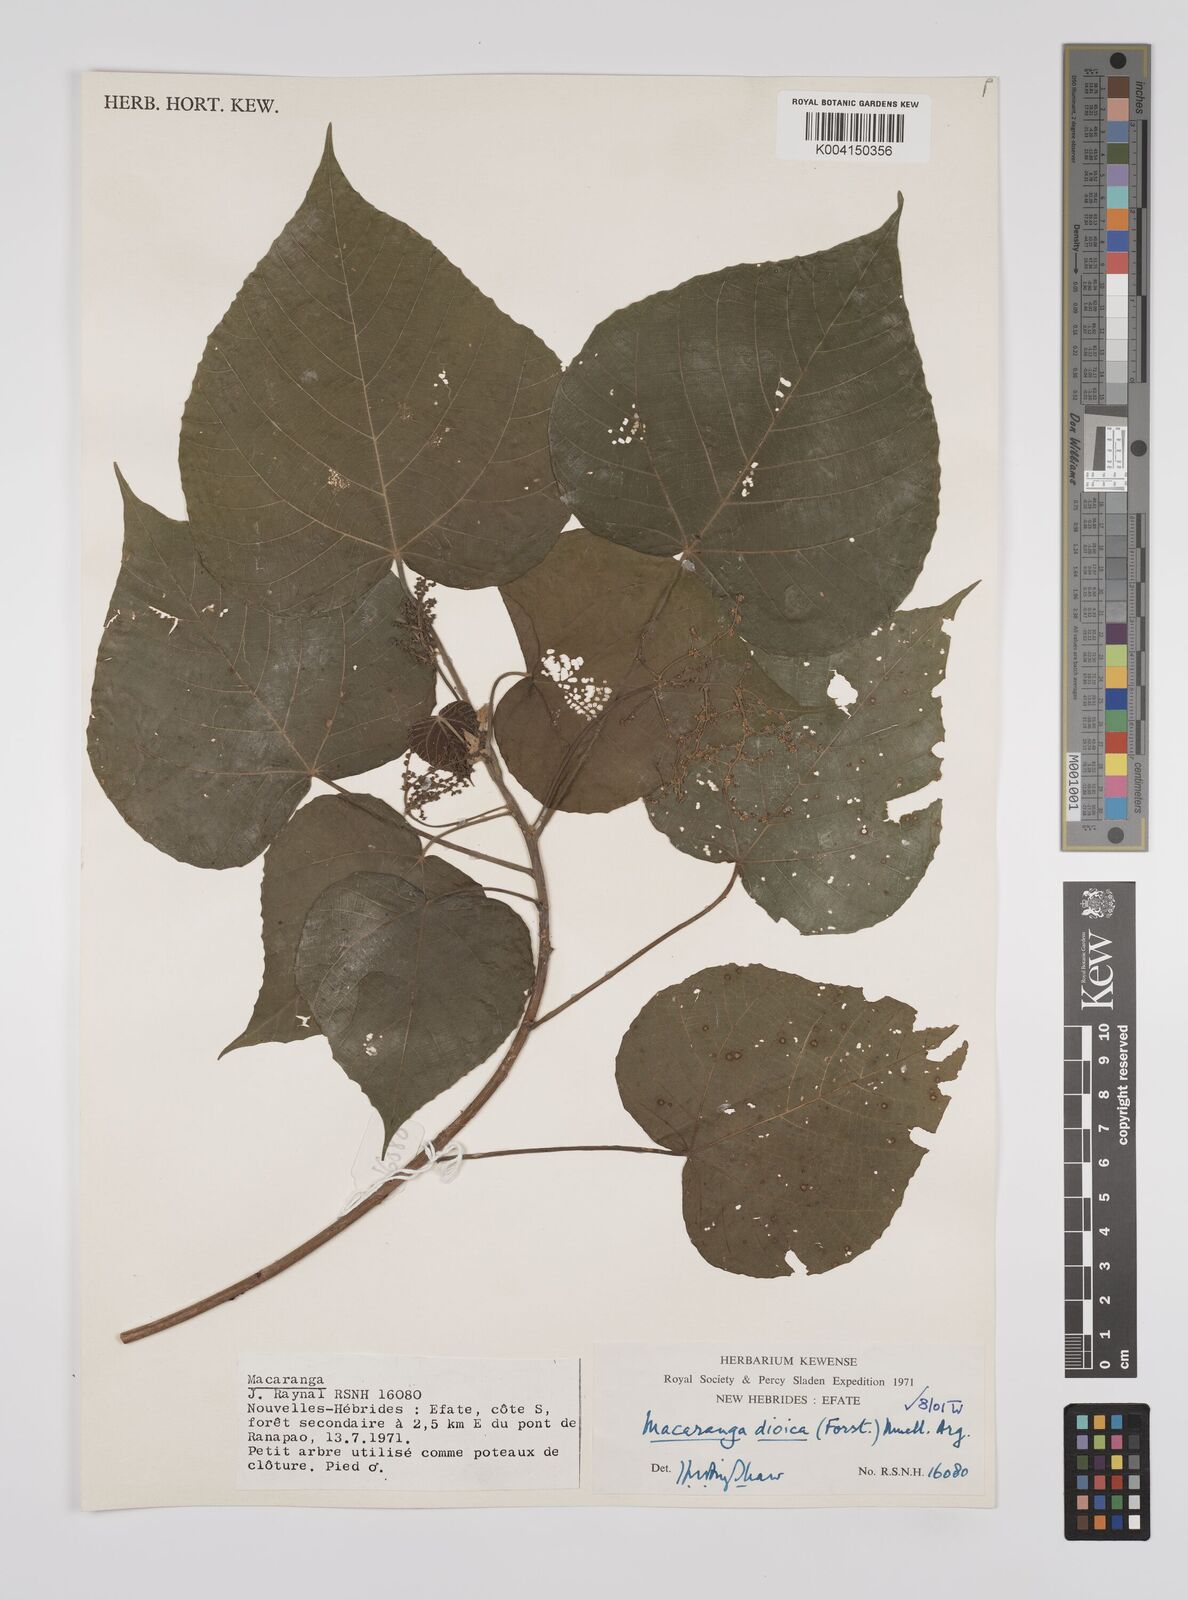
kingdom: Plantae
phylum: Tracheophyta
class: Magnoliopsida
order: Malpighiales
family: Euphorbiaceae
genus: Macaranga
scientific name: Macaranga dioica
